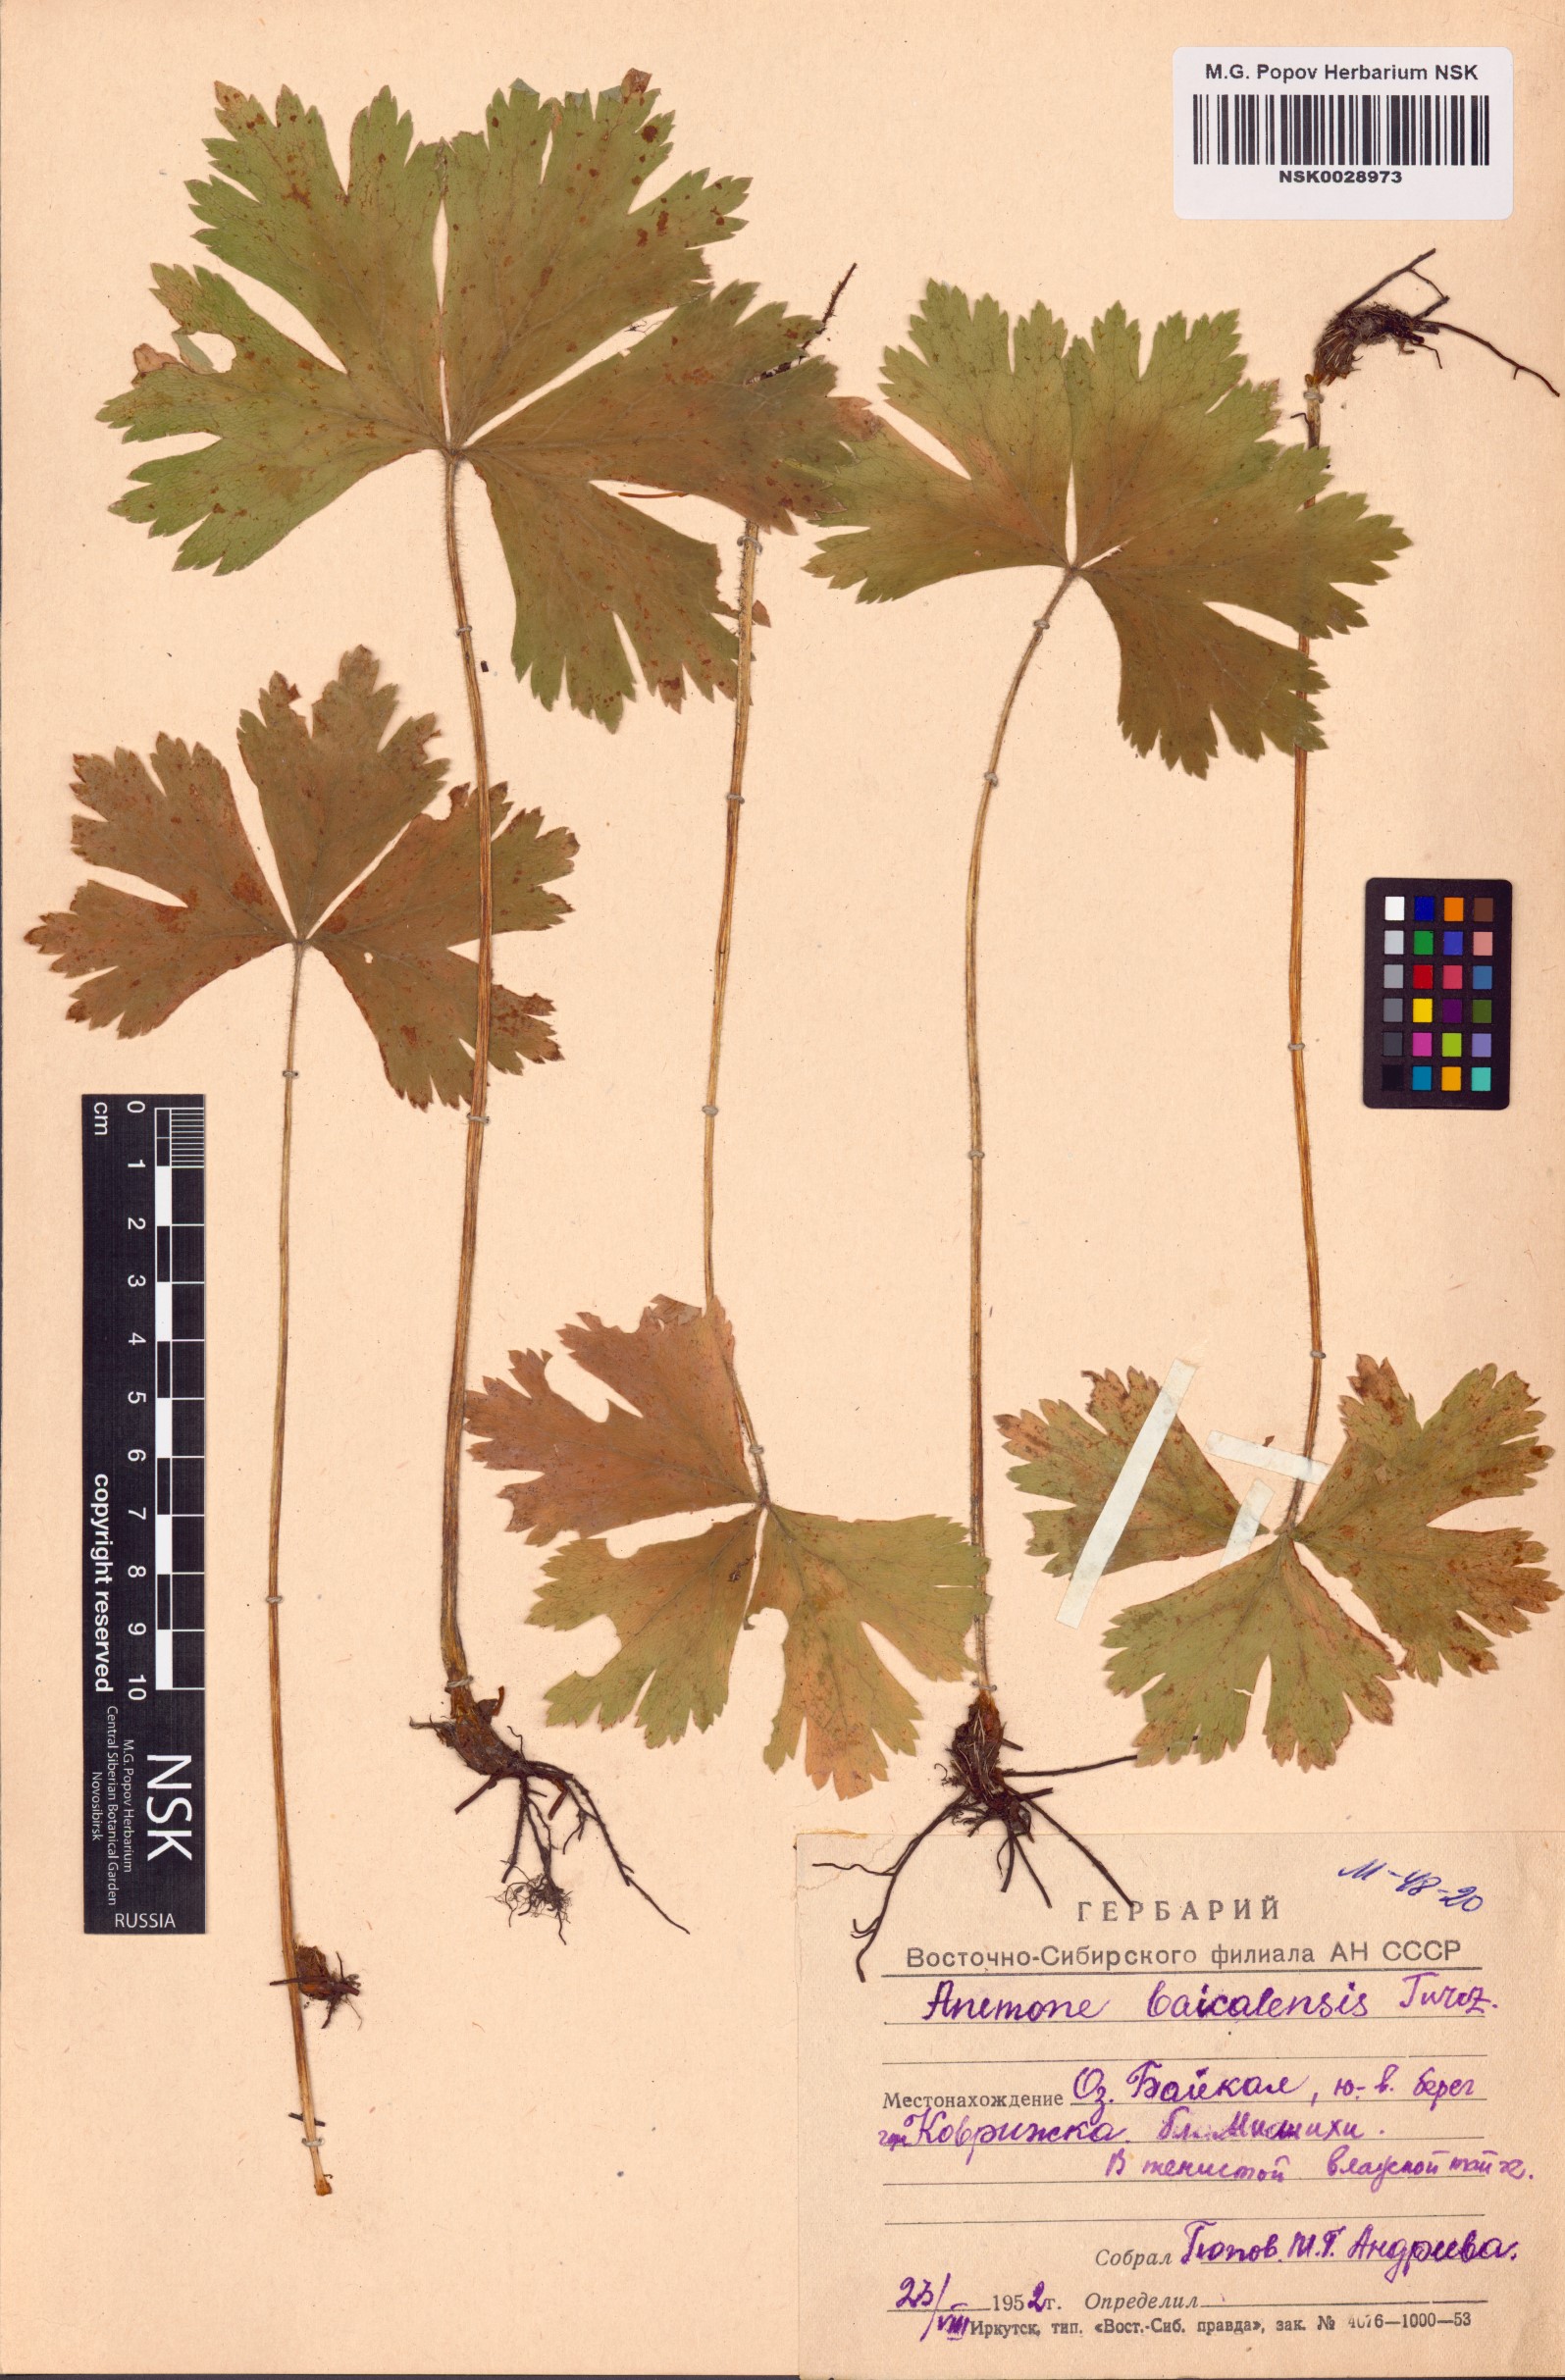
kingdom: Plantae
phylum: Tracheophyta
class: Magnoliopsida
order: Ranunculales
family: Ranunculaceae
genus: Anemonastrum
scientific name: Anemonastrum baicalense
